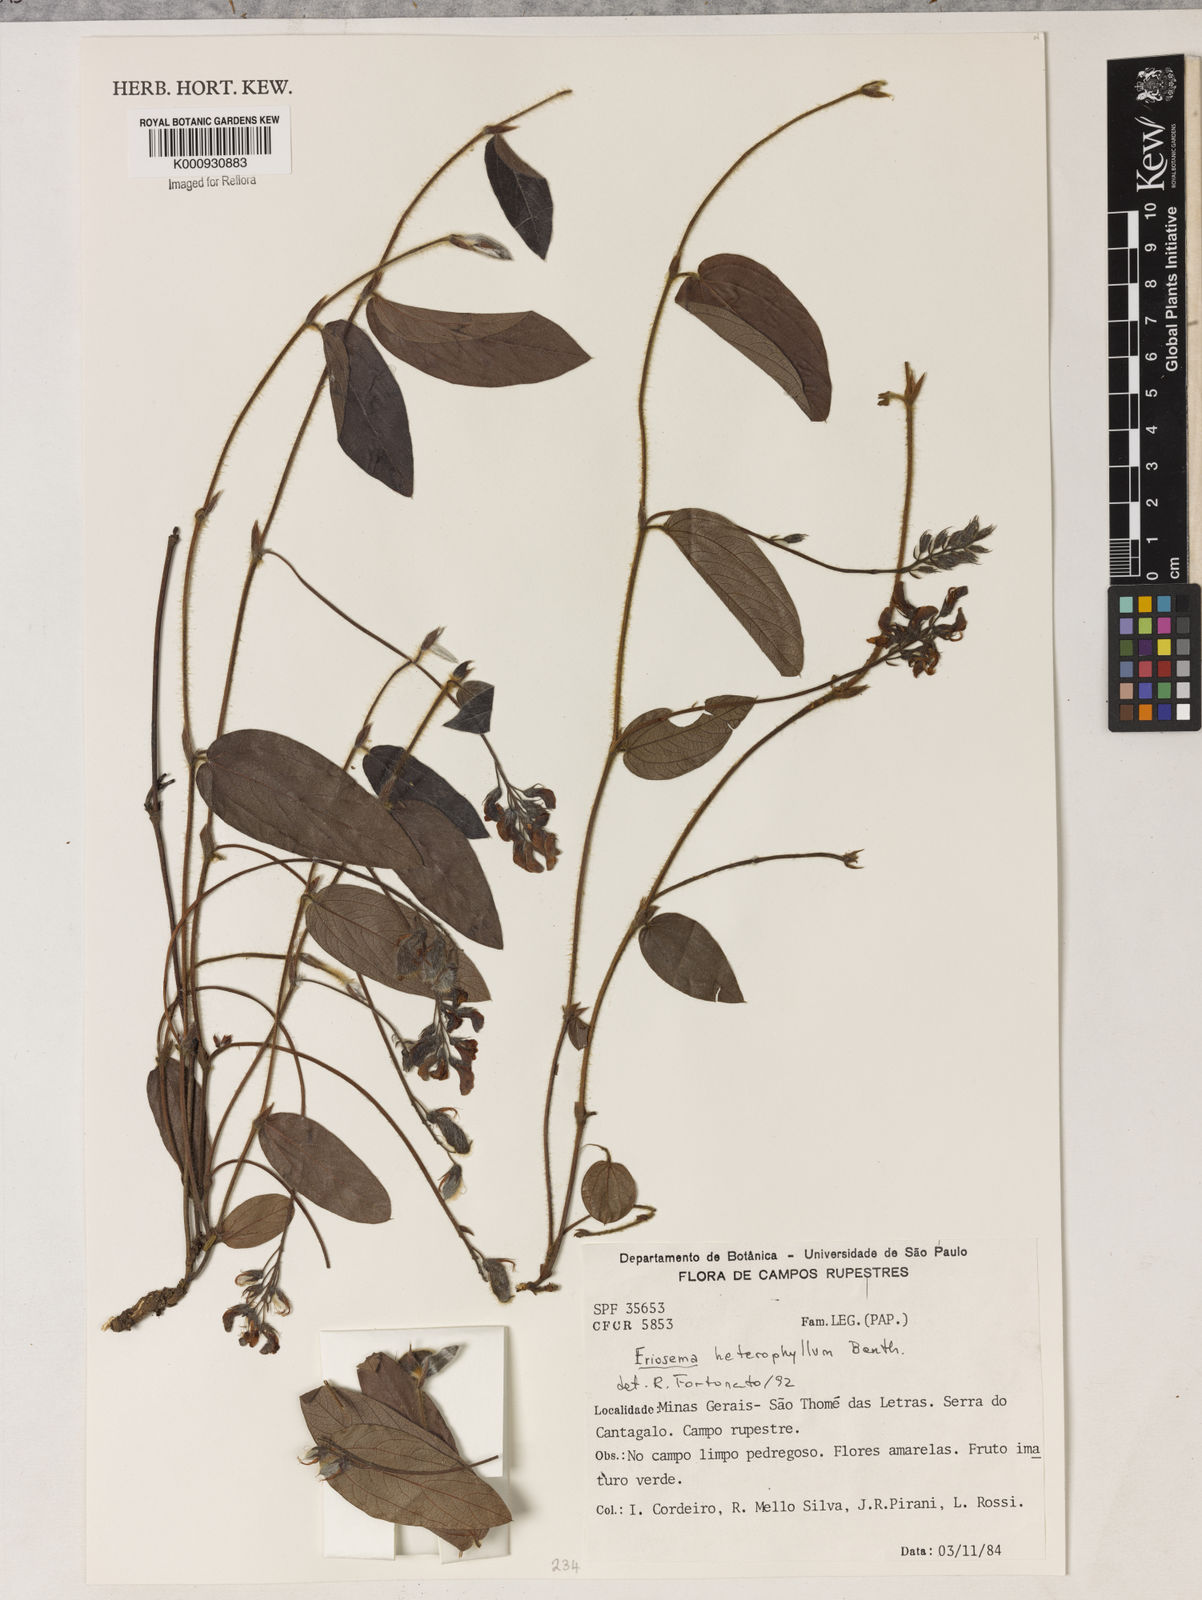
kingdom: Plantae
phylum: Tracheophyta
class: Magnoliopsida
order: Fabales
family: Fabaceae
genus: Eriosema
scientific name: Eriosema heterophyllum
